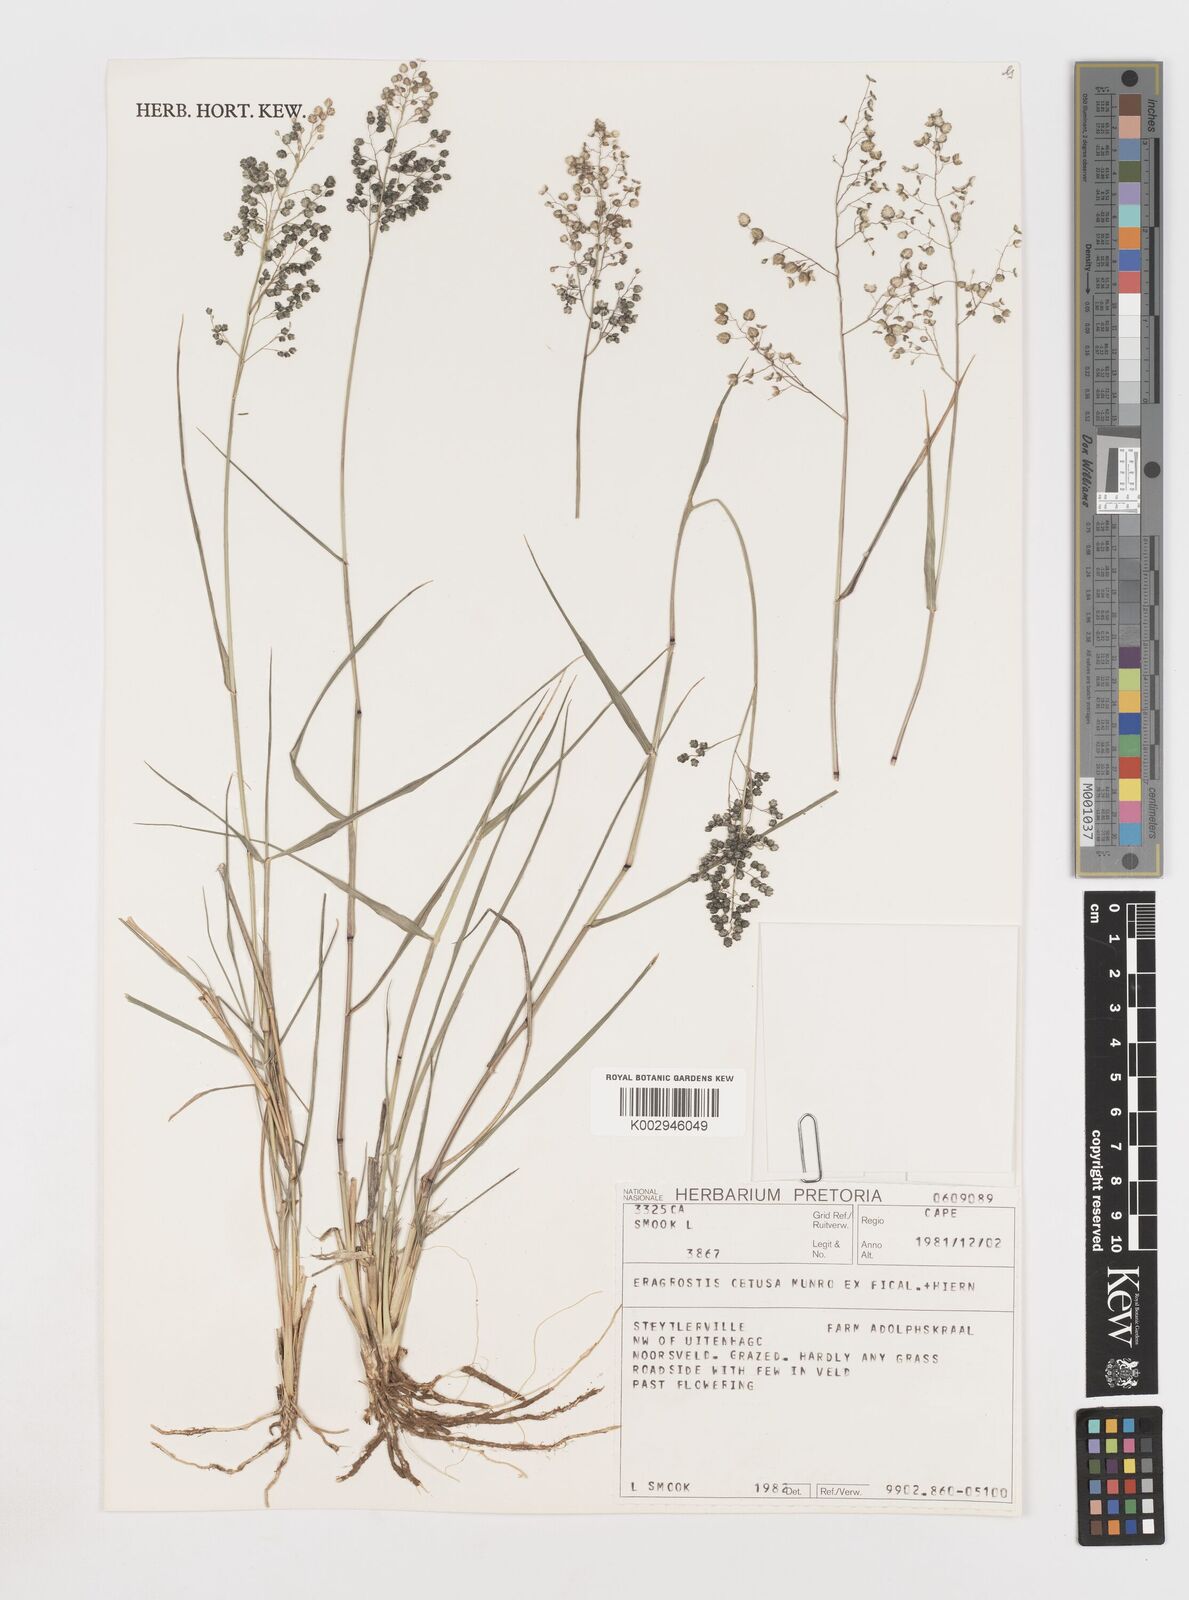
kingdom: Plantae
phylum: Tracheophyta
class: Liliopsida
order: Poales
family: Poaceae
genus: Eragrostis
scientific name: Eragrostis obtusa
